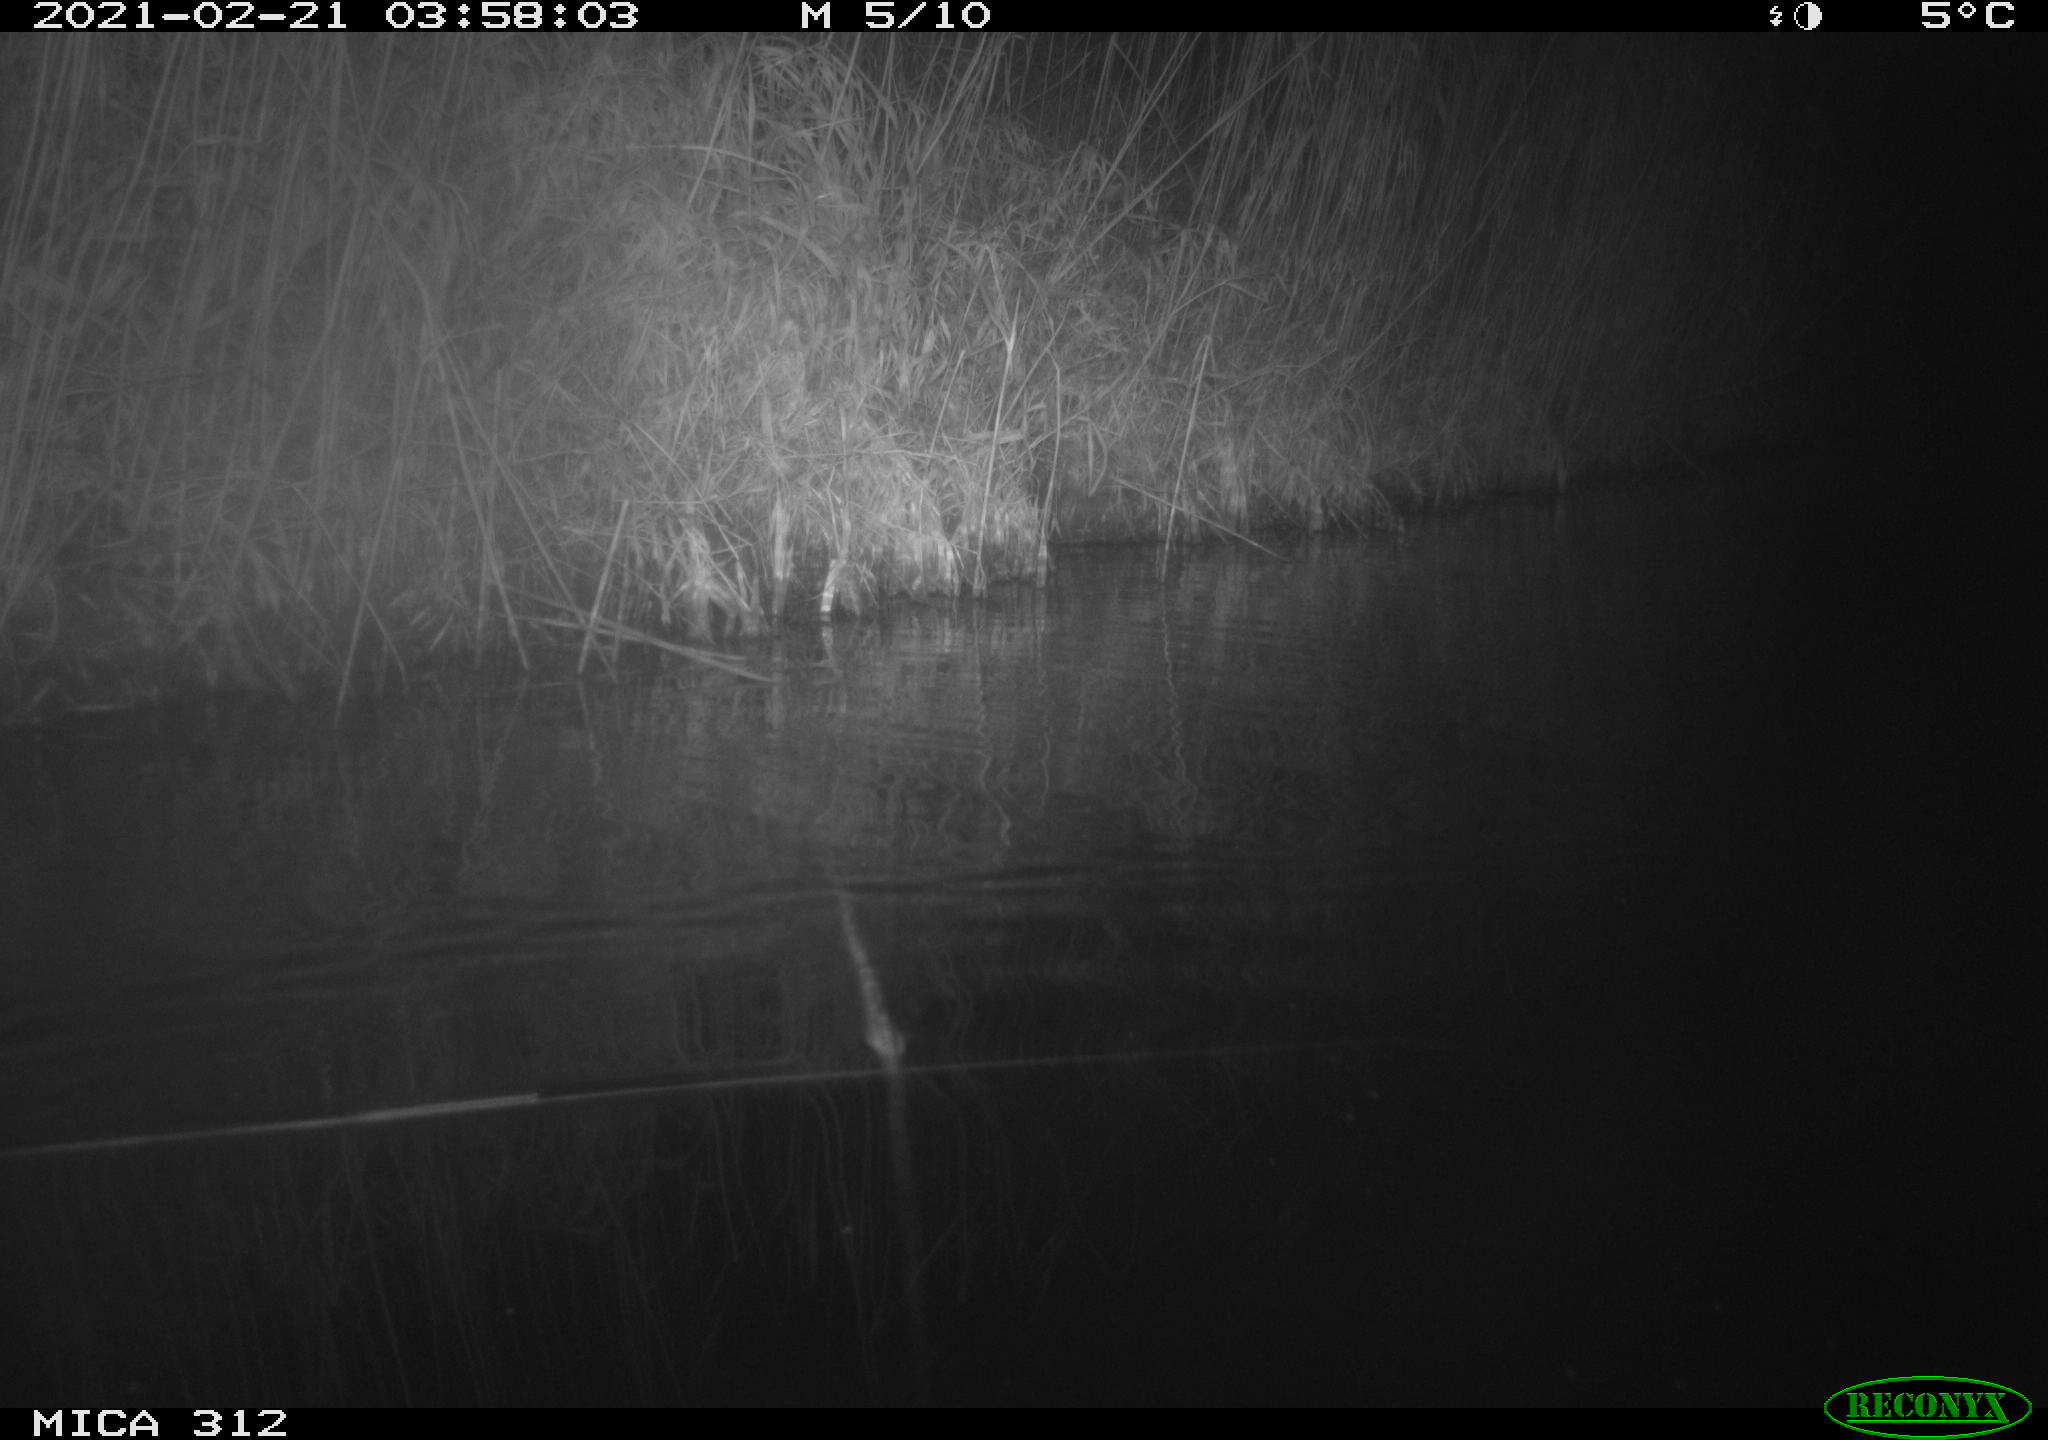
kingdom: Animalia
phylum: Chordata
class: Mammalia
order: Rodentia
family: Muridae
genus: Rattus
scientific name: Rattus norvegicus
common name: Brown rat
